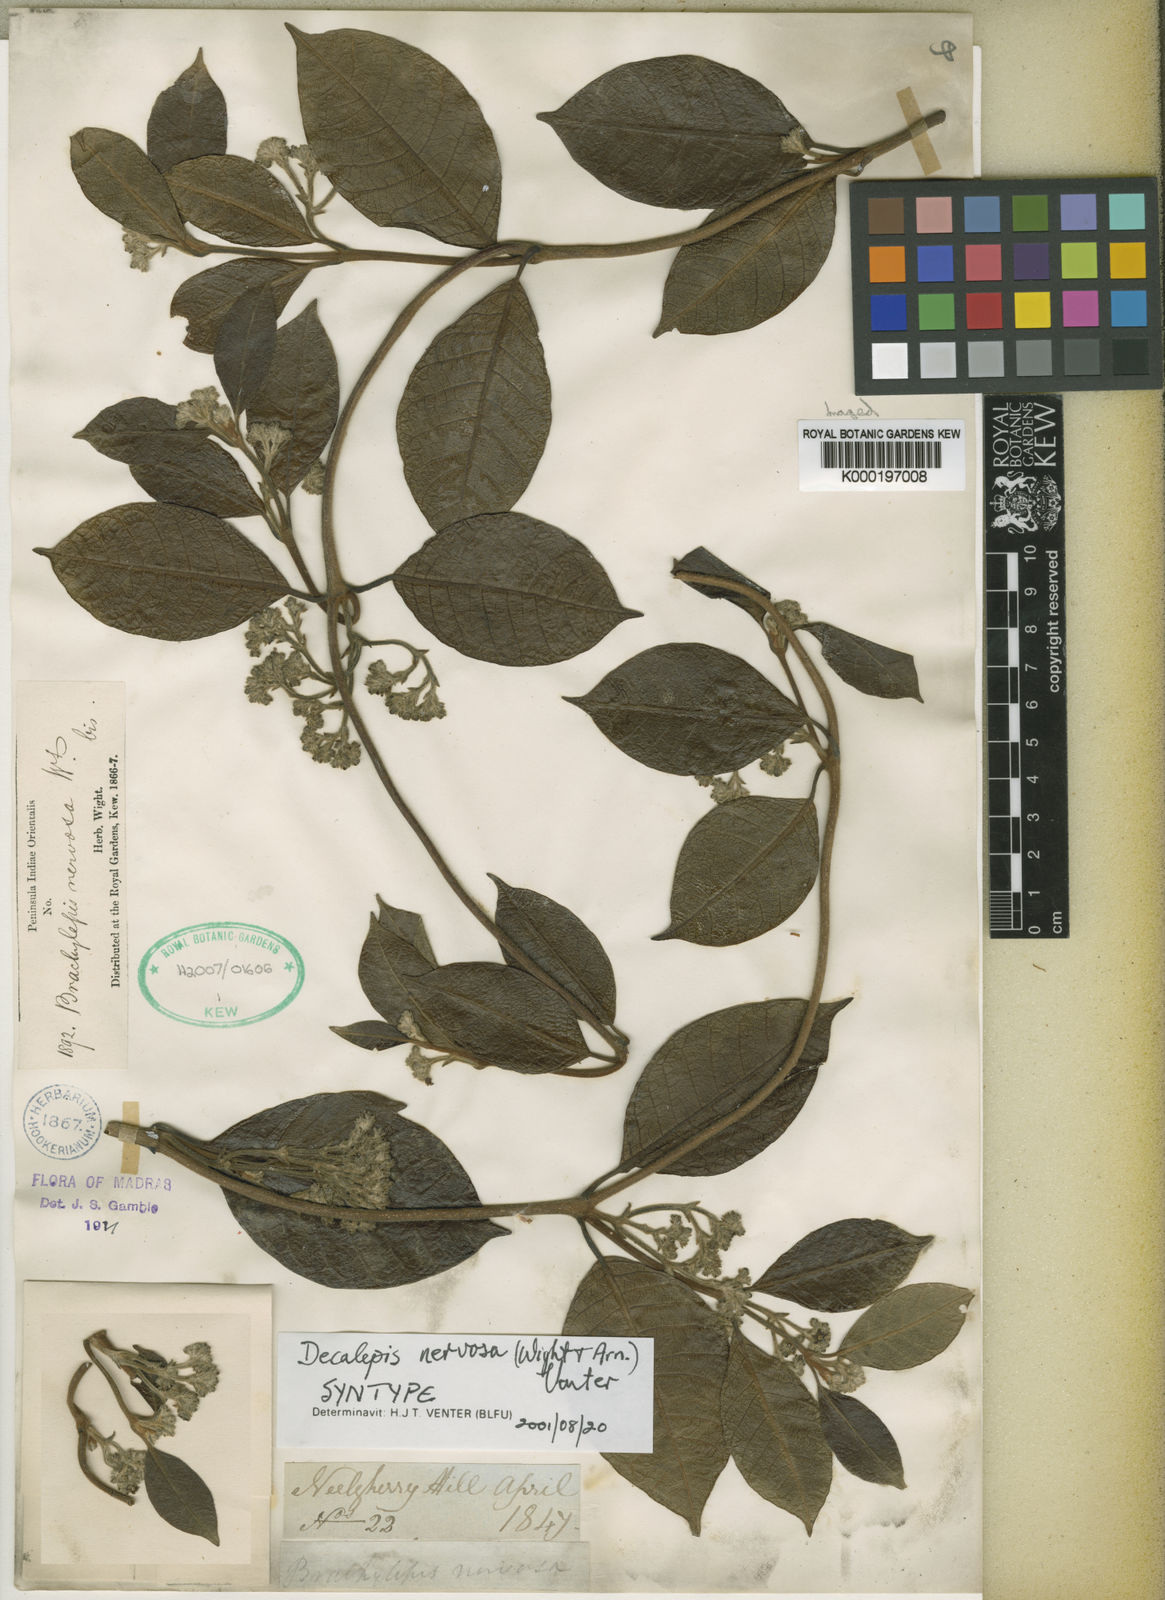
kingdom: Plantae
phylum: Tracheophyta
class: Magnoliopsida
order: Gentianales
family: Apocynaceae
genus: Decalepis
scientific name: Decalepis nervosa
